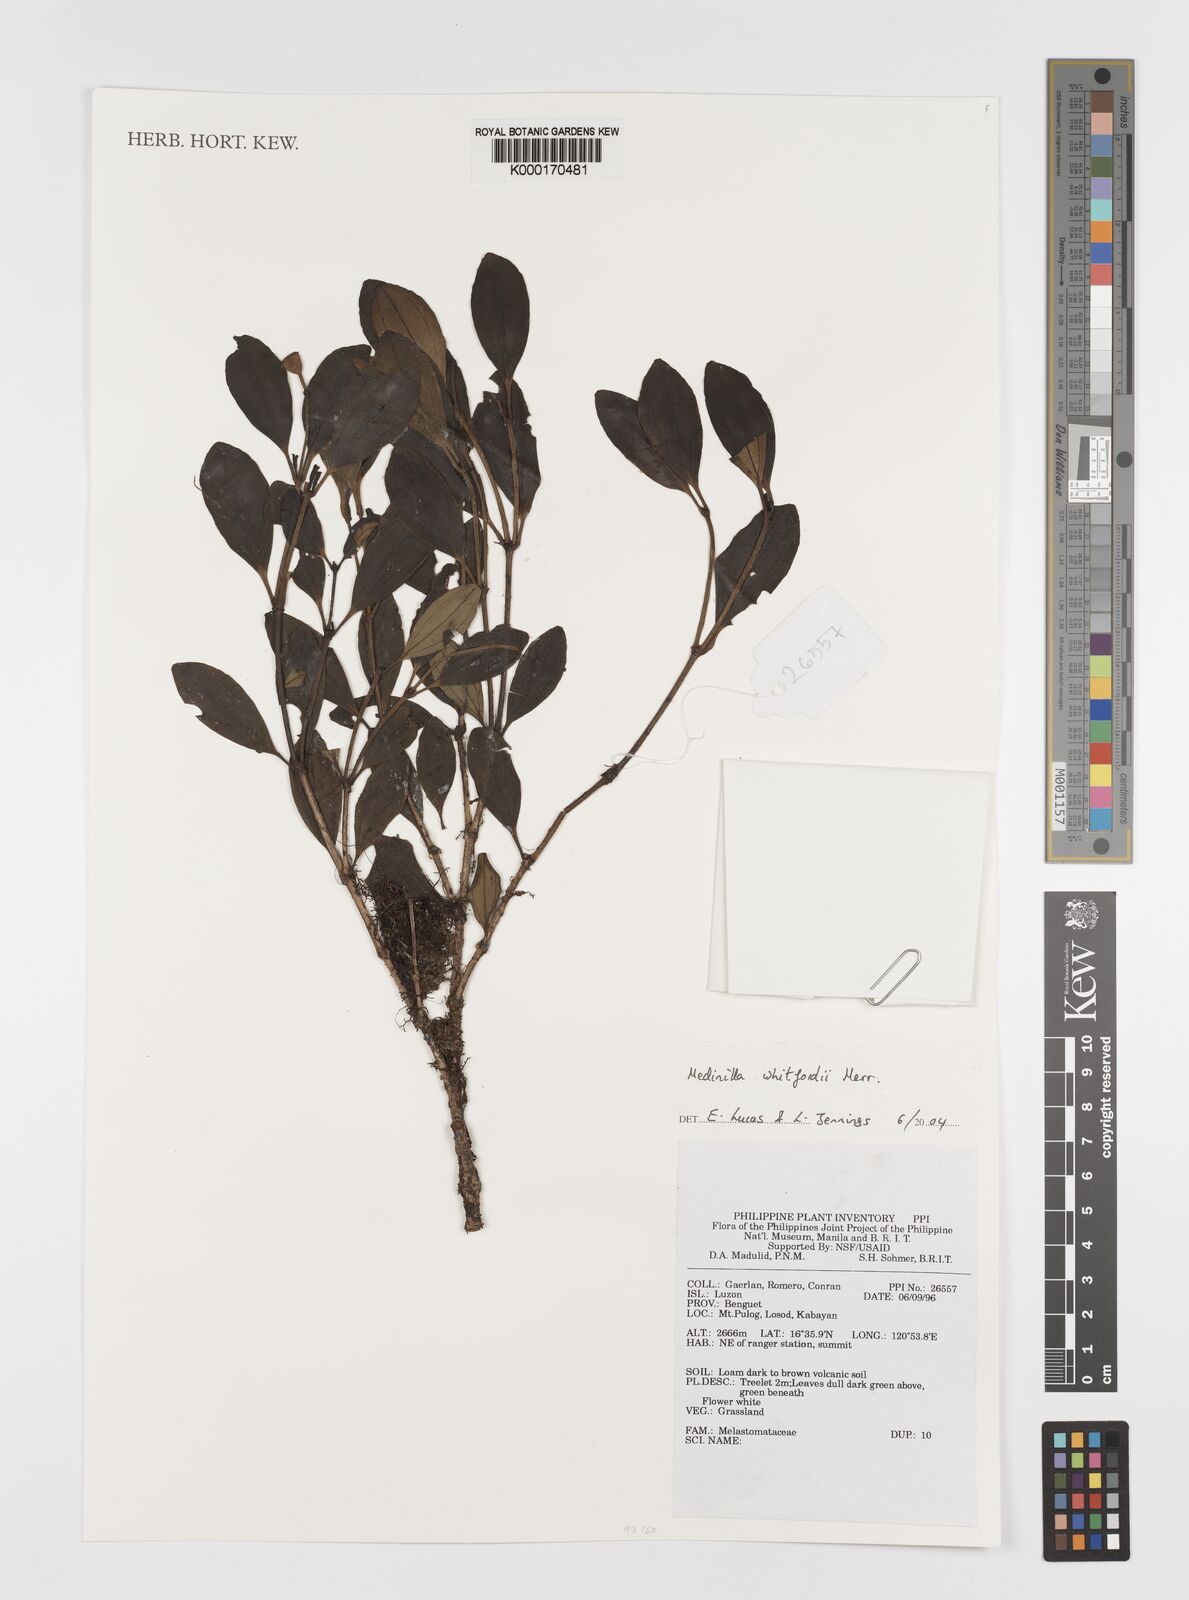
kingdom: Plantae
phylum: Tracheophyta
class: Magnoliopsida
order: Myrtales
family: Melastomataceae
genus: Medinilla
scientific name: Medinilla whitfordii
